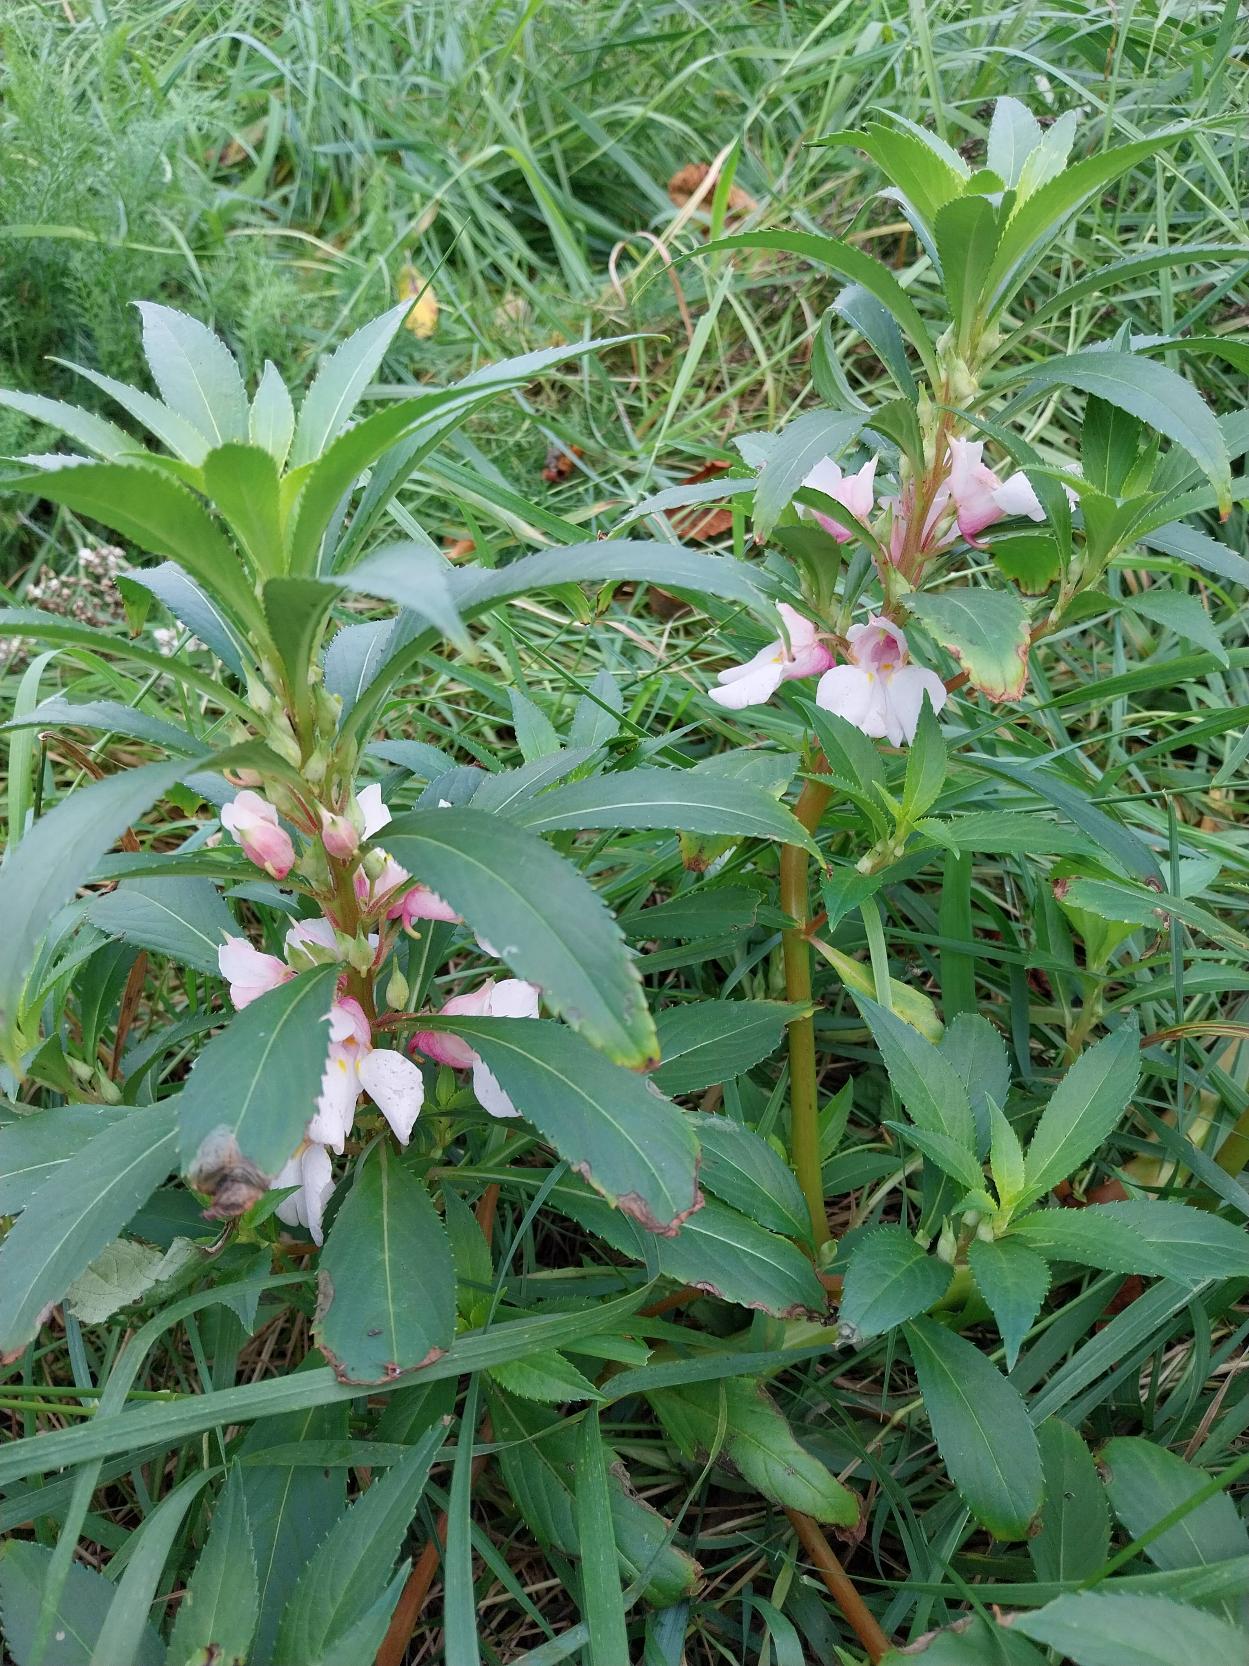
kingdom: Plantae
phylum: Tracheophyta
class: Magnoliopsida
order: Ericales
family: Balsaminaceae
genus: Impatiens
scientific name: Impatiens
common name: Balsaminslægten
